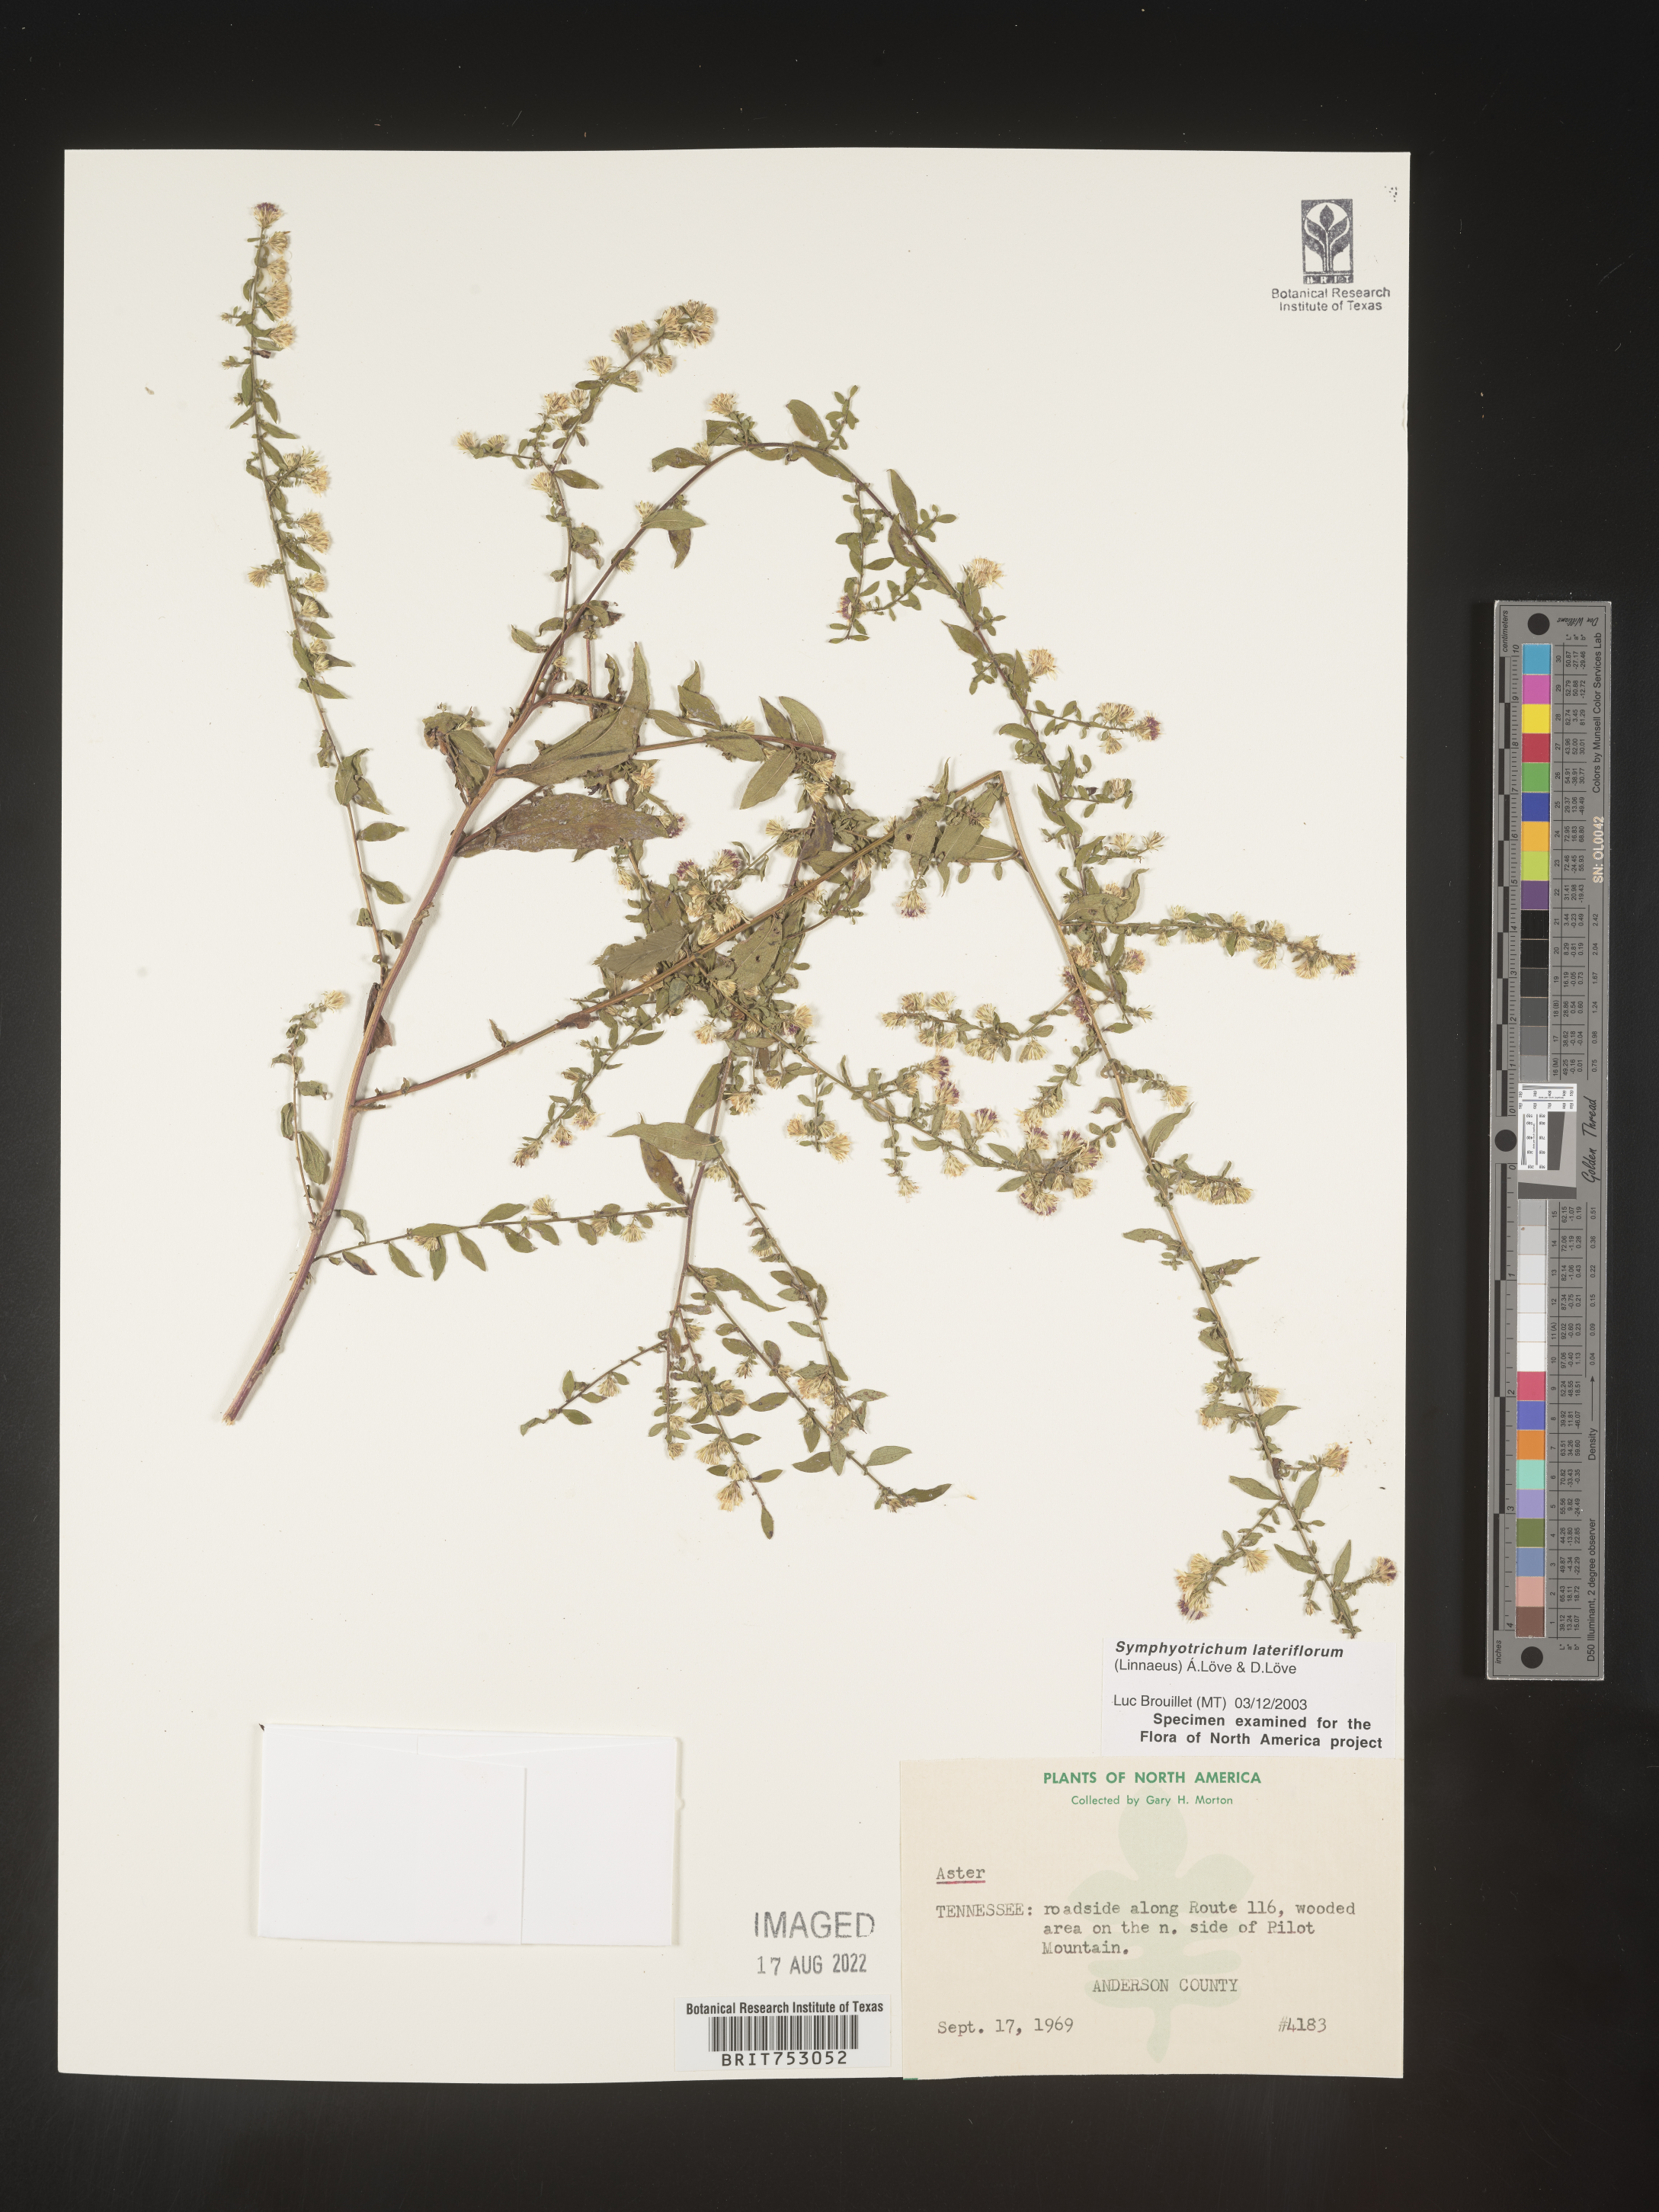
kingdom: Plantae
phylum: Tracheophyta
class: Magnoliopsida
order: Asterales
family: Asteraceae
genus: Symphyotrichum
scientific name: Symphyotrichum lateriflorum
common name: Calico aster
